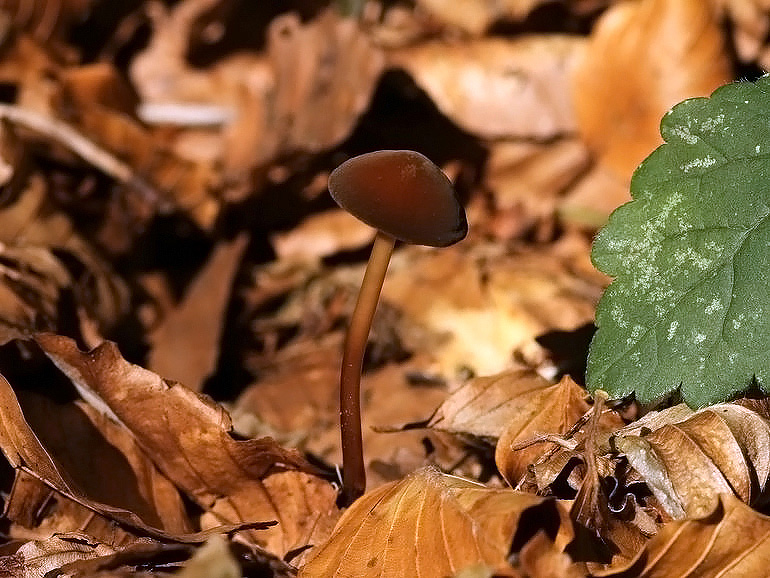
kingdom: Fungi
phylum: Basidiomycota
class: Agaricomycetes
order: Agaricales
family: Marasmiaceae
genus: Marasmius
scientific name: Marasmius cohaerens
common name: hornstokket bruskhat
